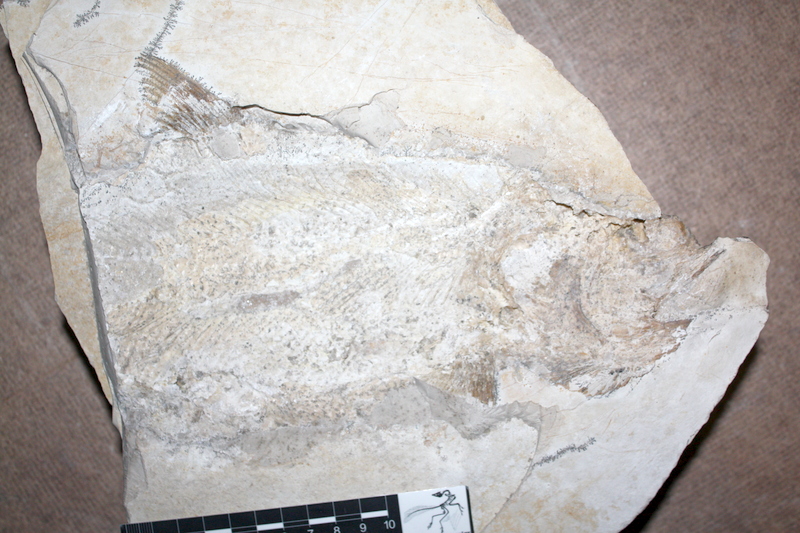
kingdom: Animalia
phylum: Chordata
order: Amiiformes
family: Caturidae
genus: Caturus
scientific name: Caturus
